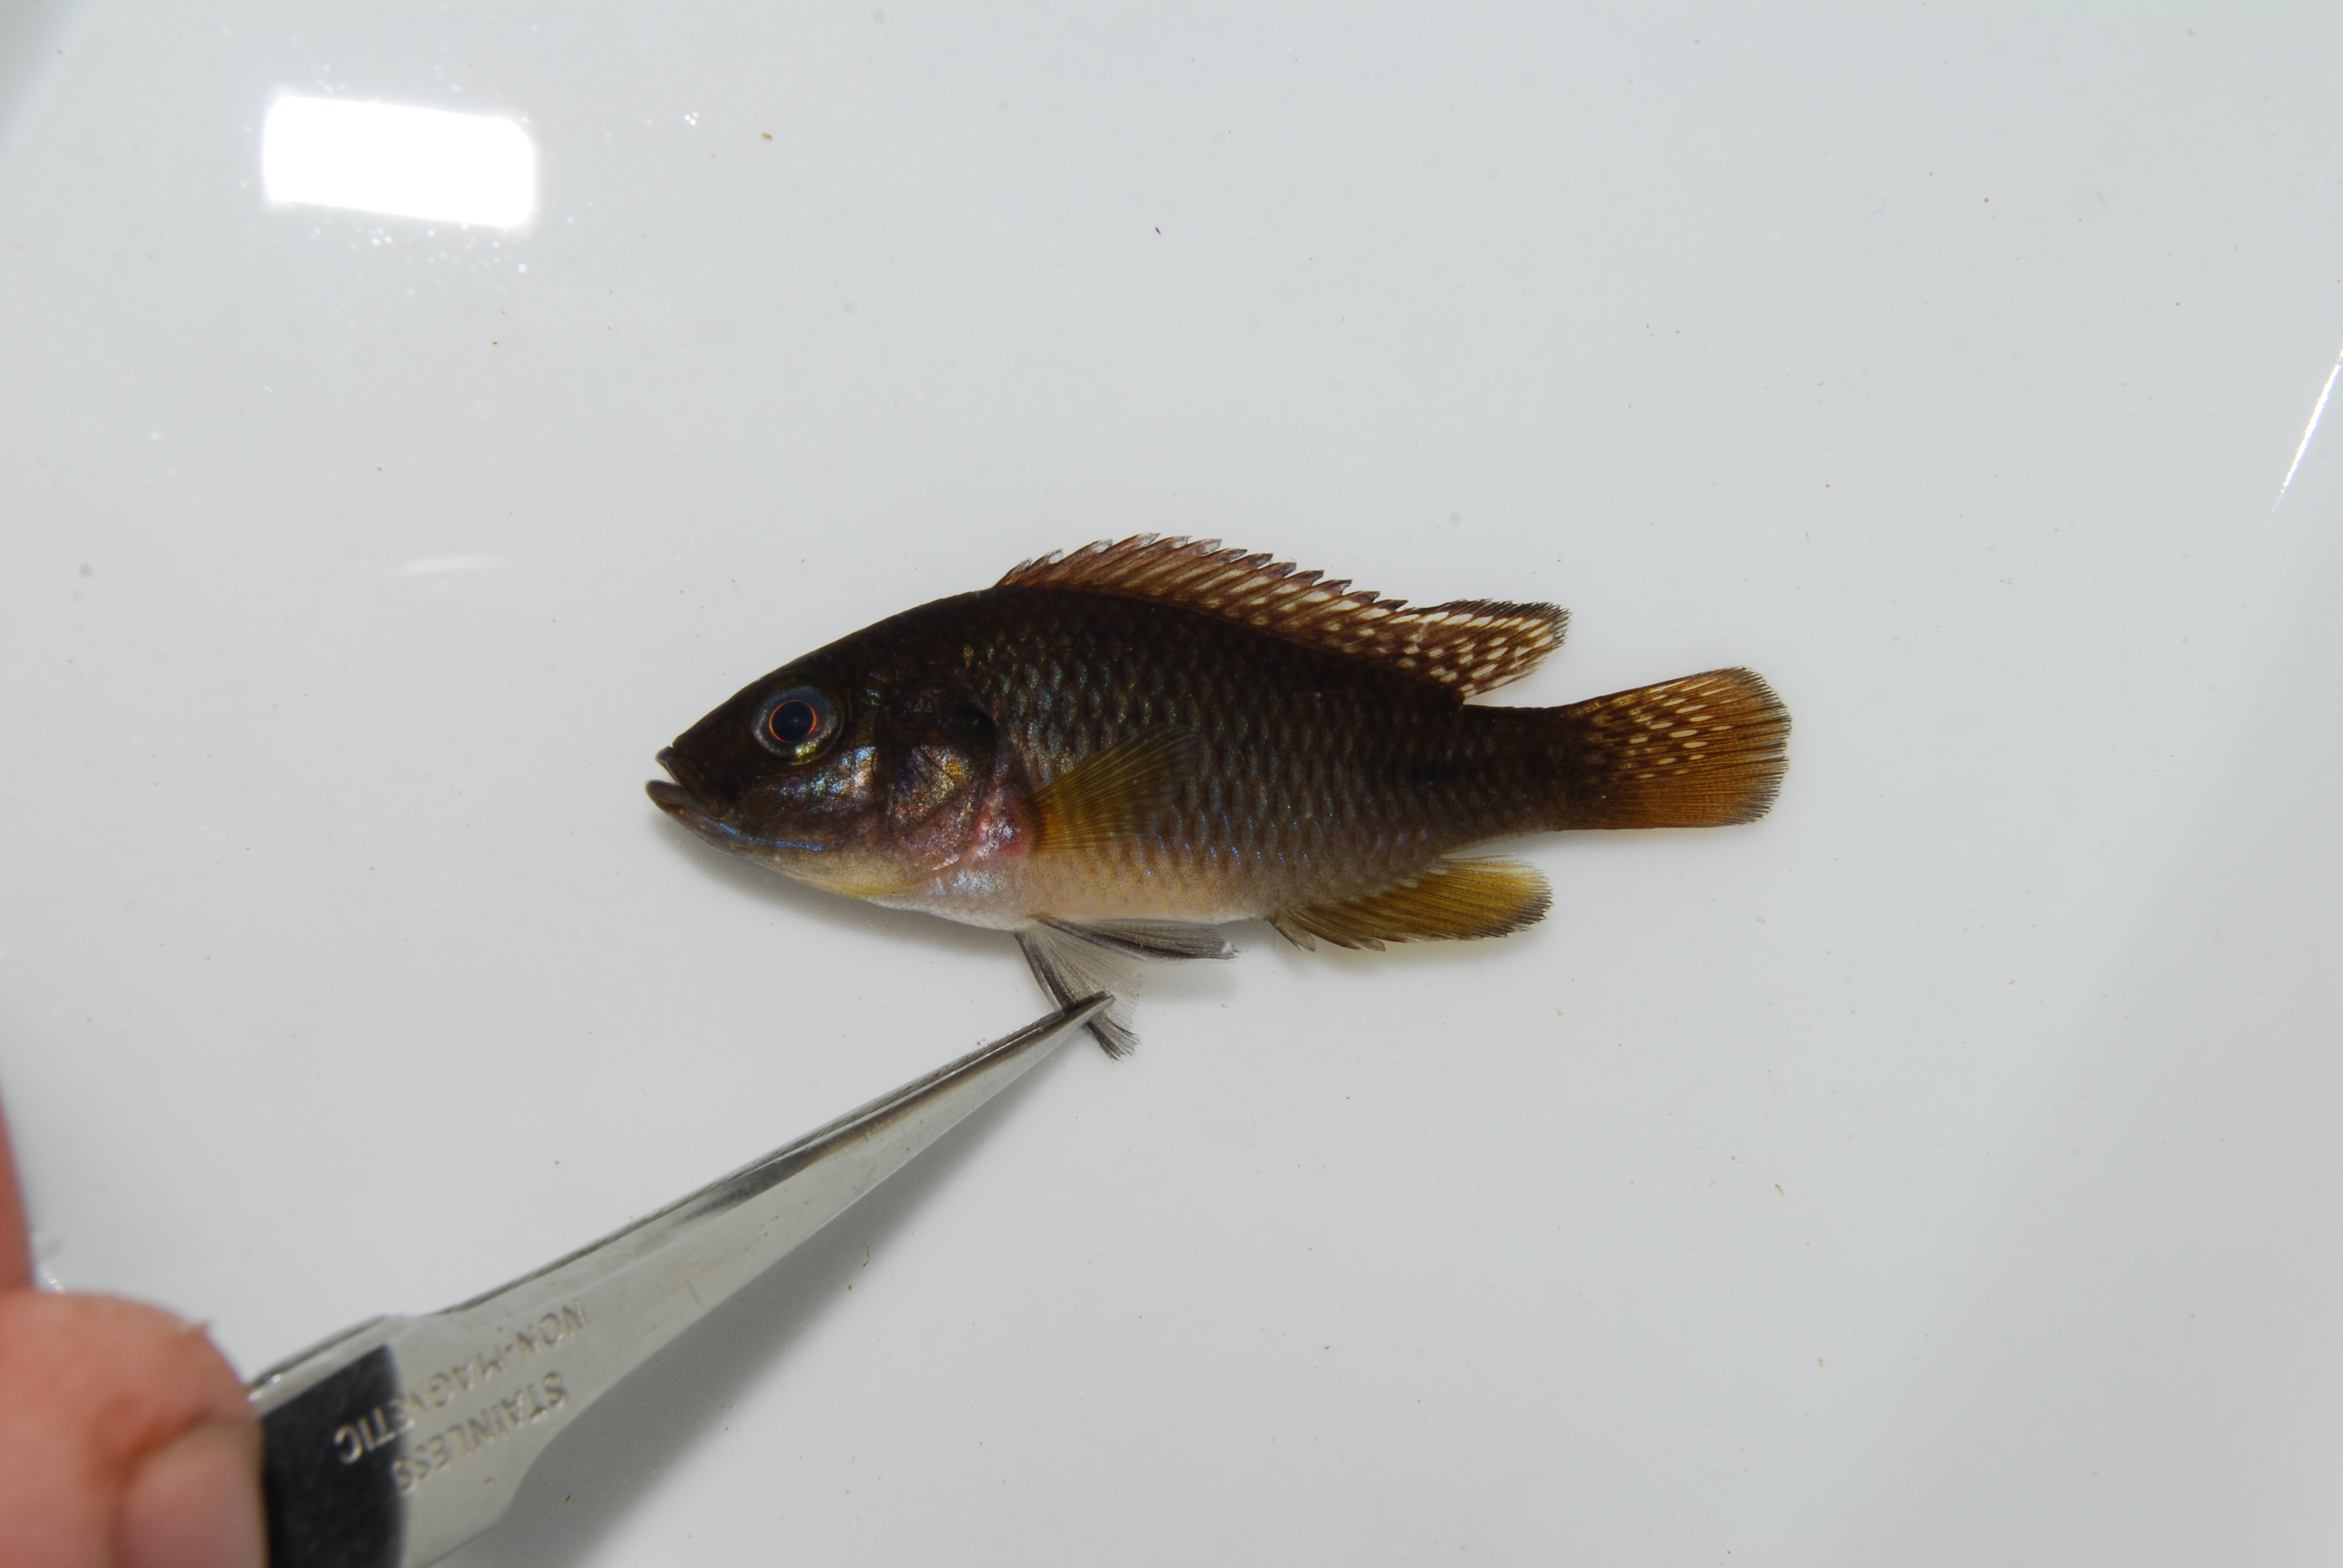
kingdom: Animalia
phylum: Chordata
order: Perciformes
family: Cichlidae
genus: Pseudocrenilabrus
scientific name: Pseudocrenilabrus philander
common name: Southern mouthbrooder
